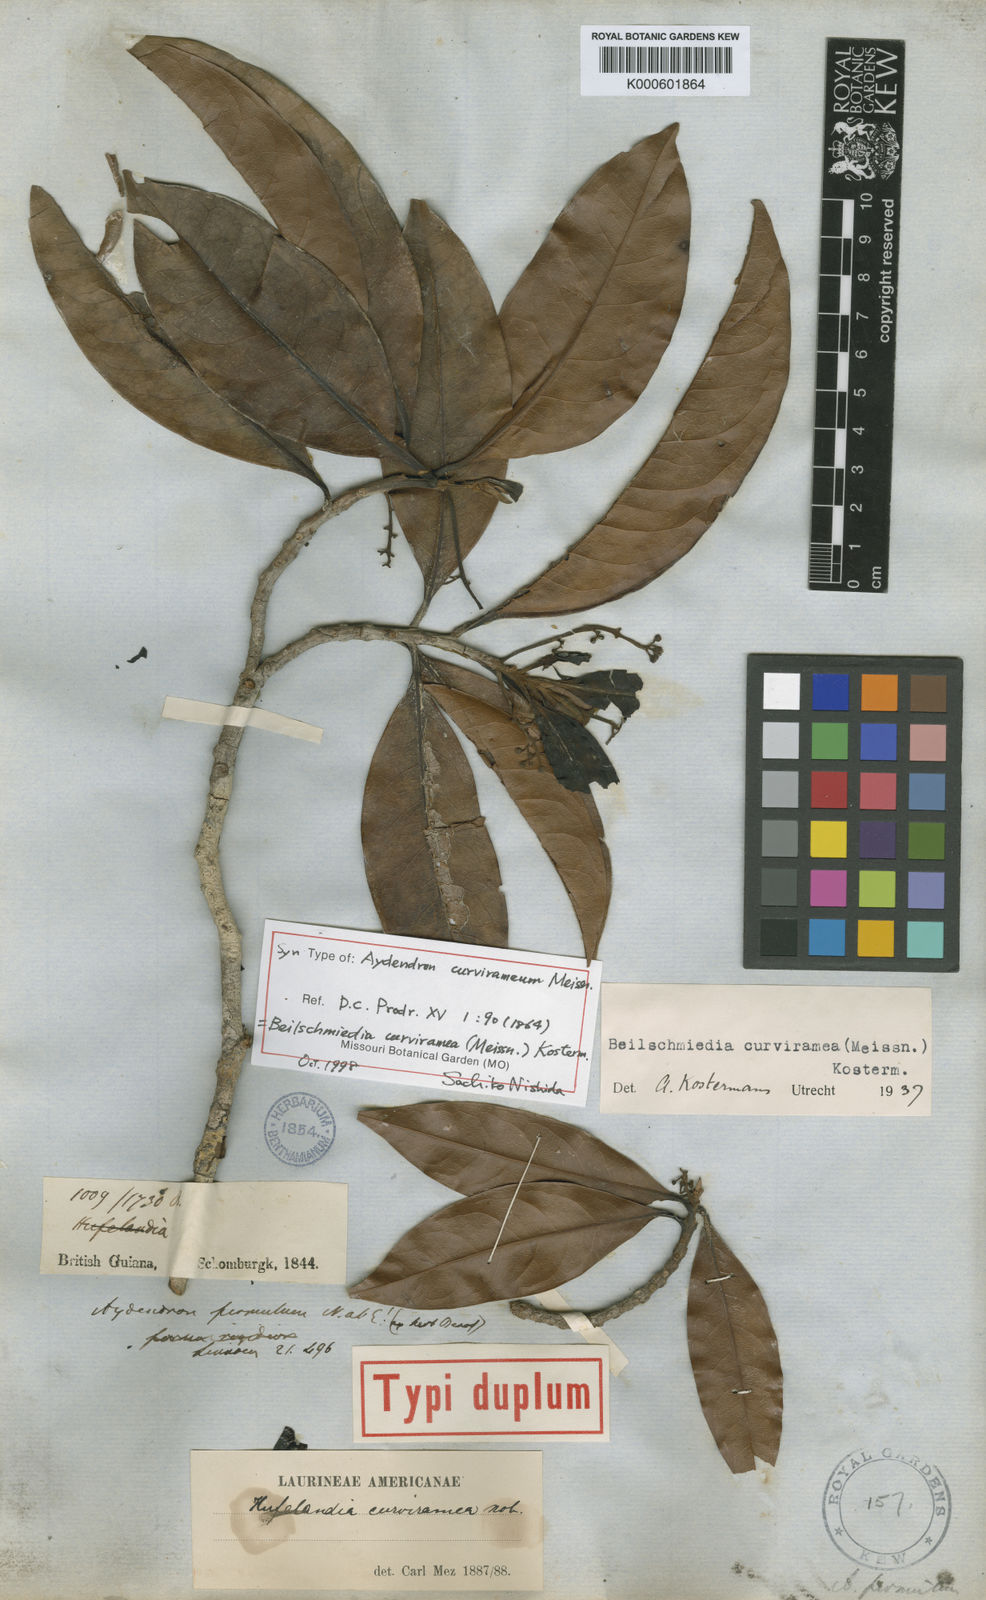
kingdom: Plantae
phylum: Tracheophyta
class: Magnoliopsida
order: Laurales
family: Lauraceae
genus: Beilschmiedia
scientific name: Beilschmiedia curviramea
